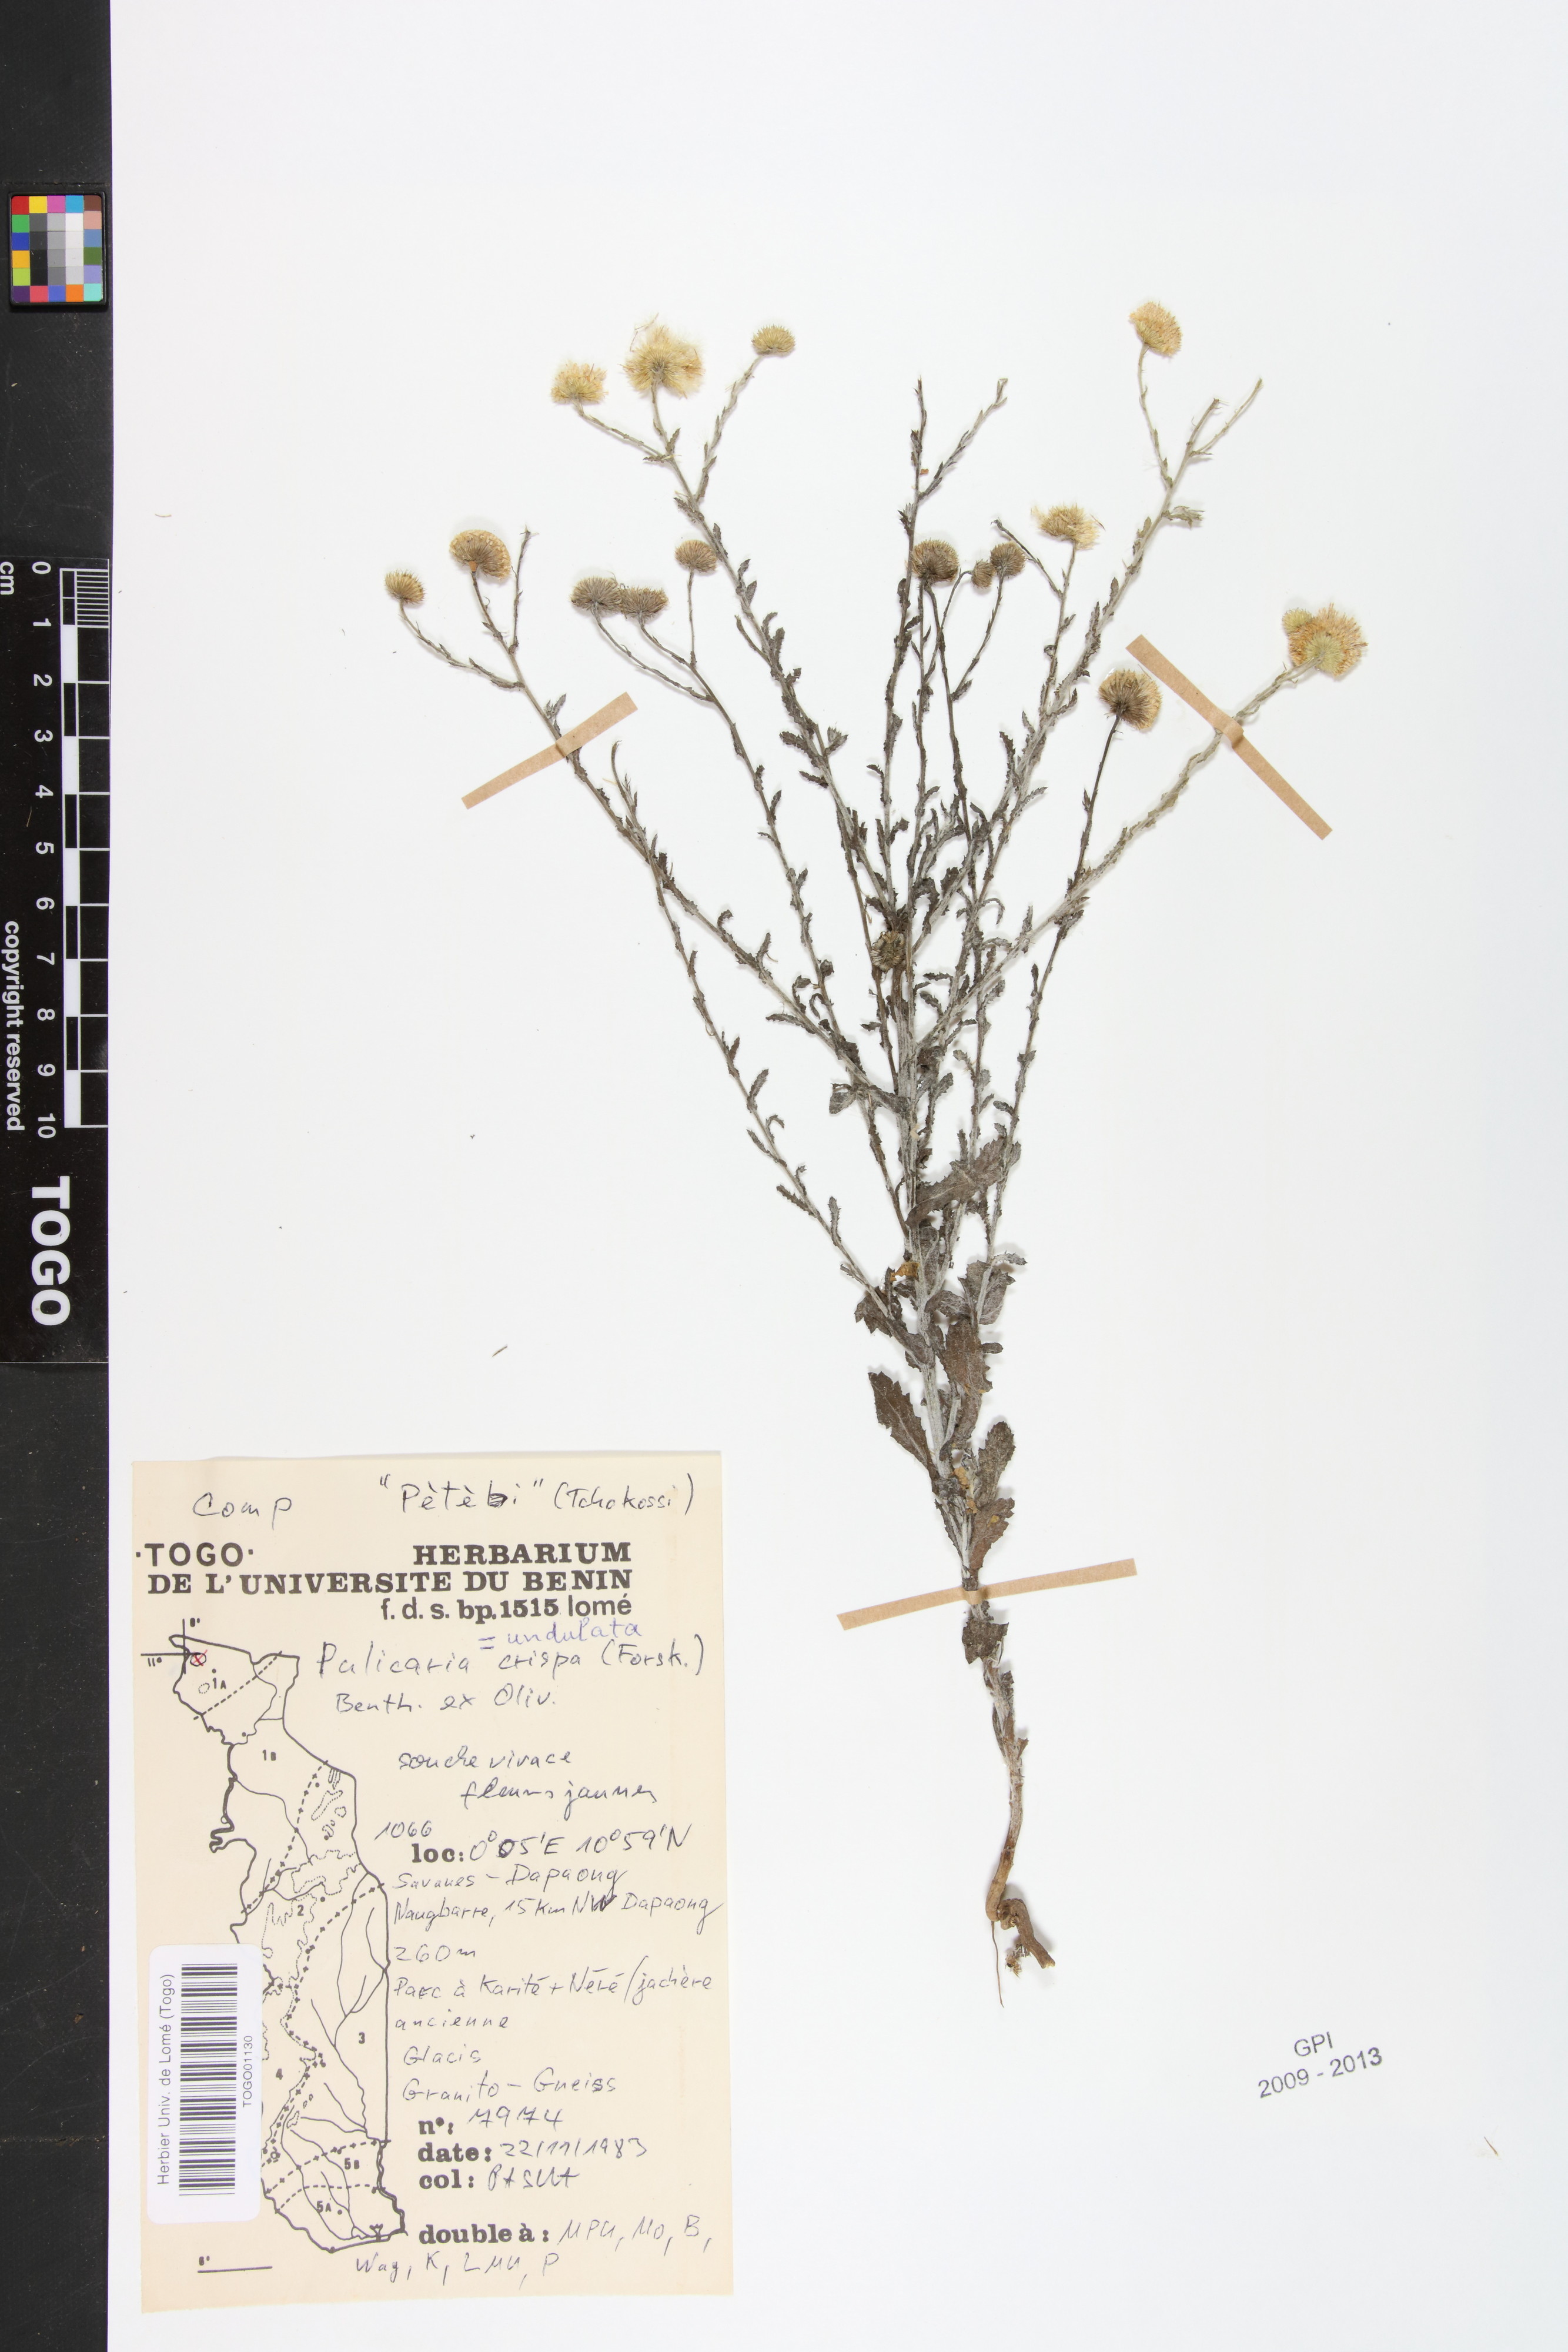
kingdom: Plantae
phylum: Tracheophyta
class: Magnoliopsida
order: Asterales
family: Asteraceae
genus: Pulicaria
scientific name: Pulicaria undulata
